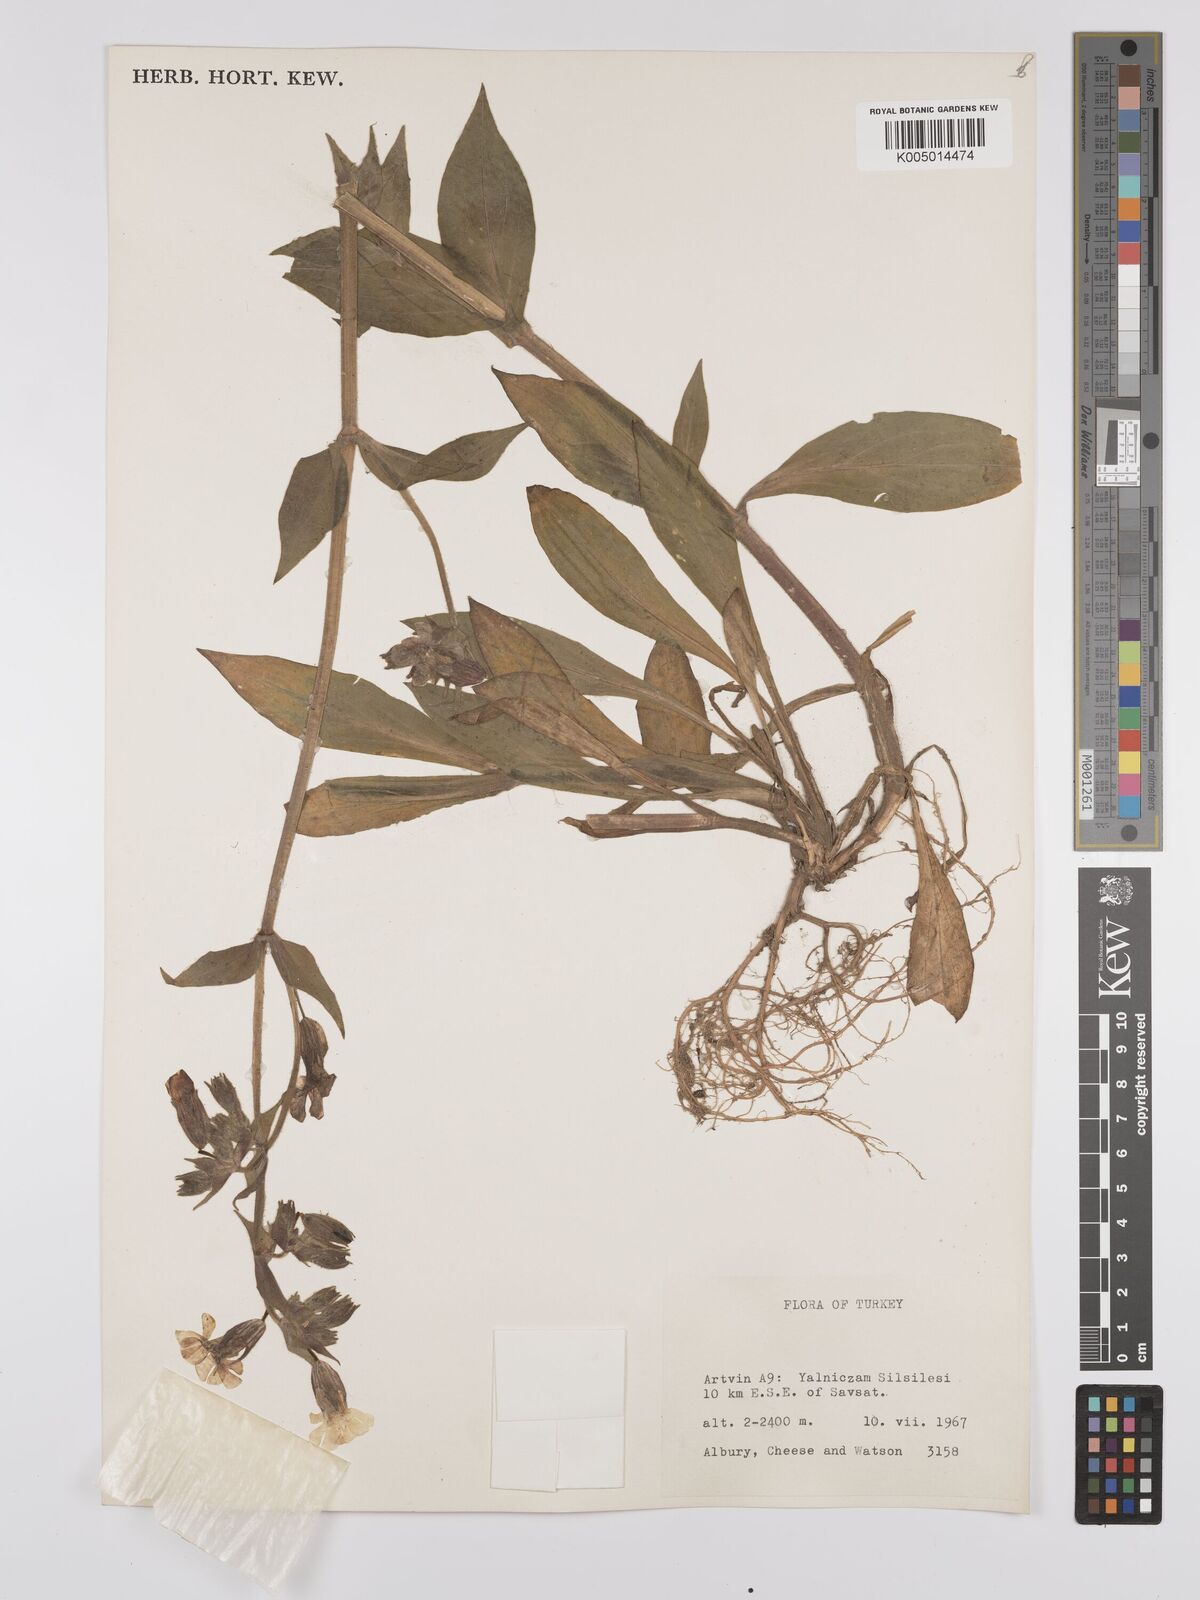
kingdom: Plantae
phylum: Tracheophyta
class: Magnoliopsida
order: Caryophyllales
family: Caryophyllaceae
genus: Silene
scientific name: Silene
